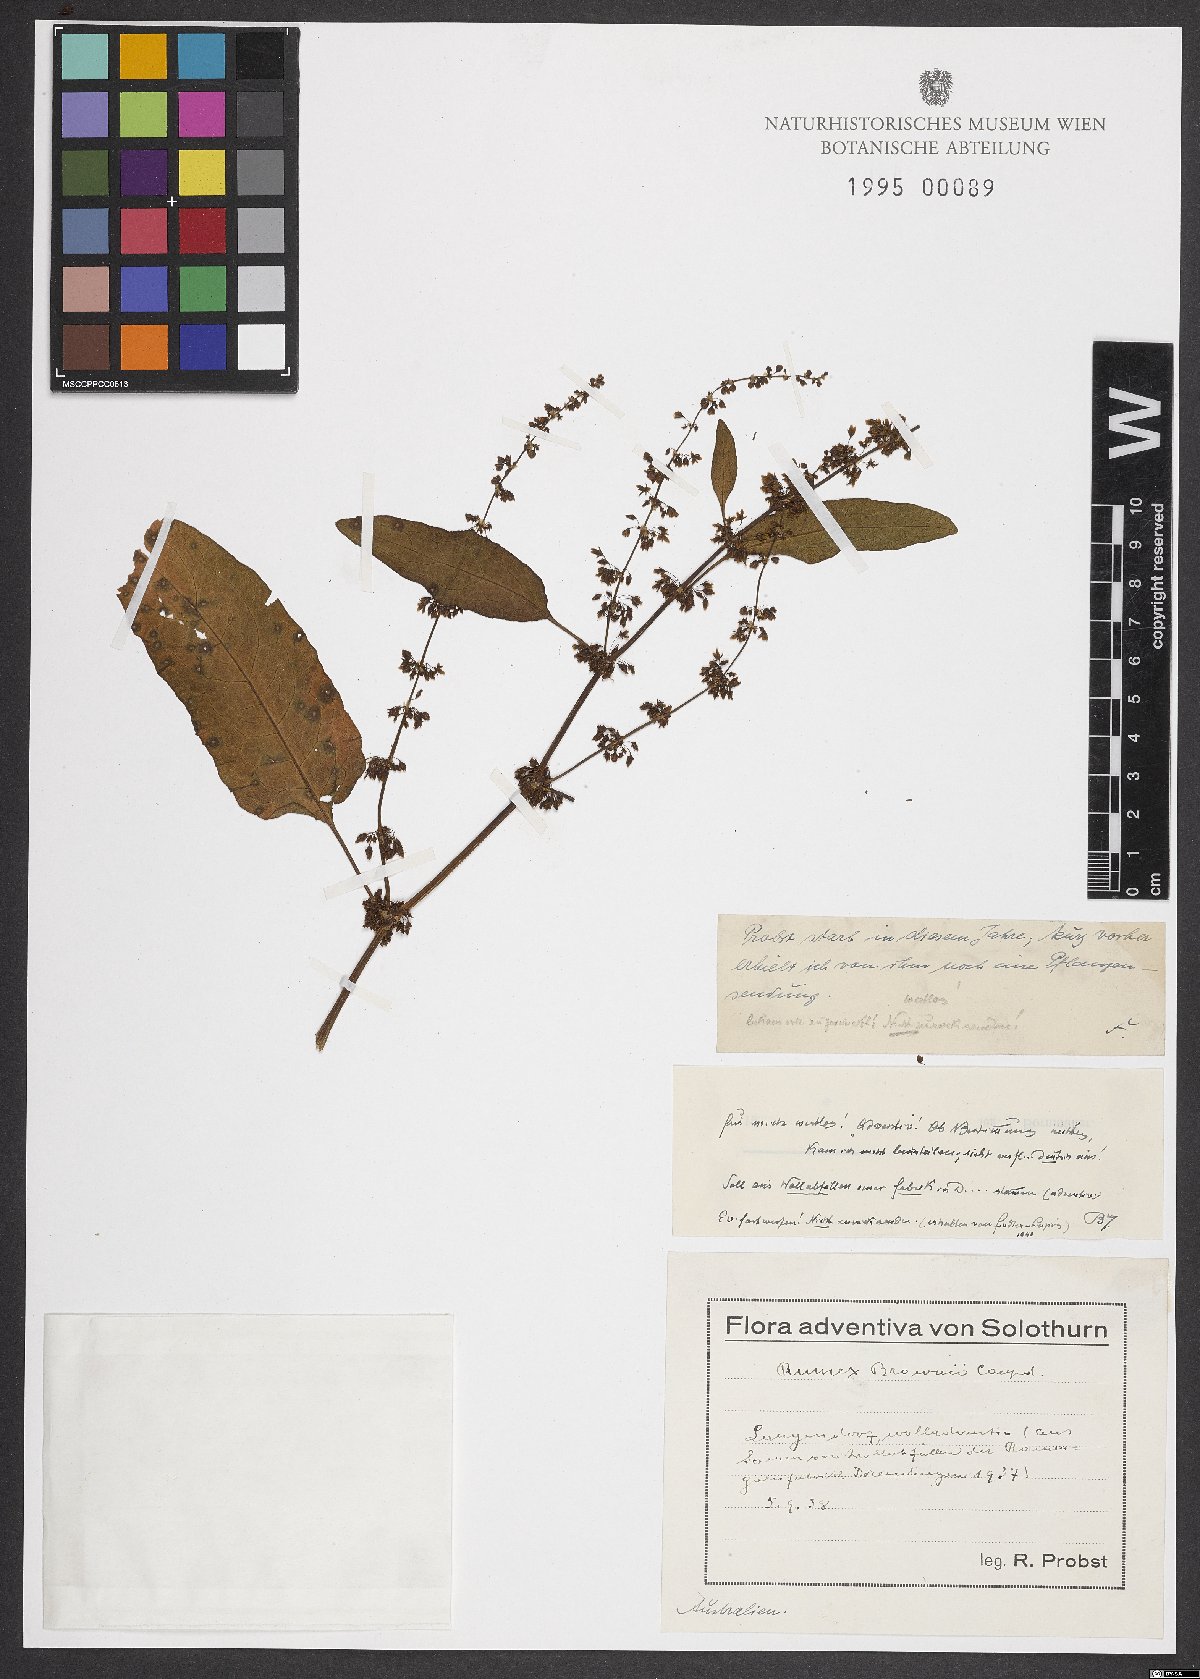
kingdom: Plantae
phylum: Tracheophyta
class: Magnoliopsida
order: Caryophyllales
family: Polygonaceae
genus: Rumex
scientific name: Rumex brownii
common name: Hooked dock
